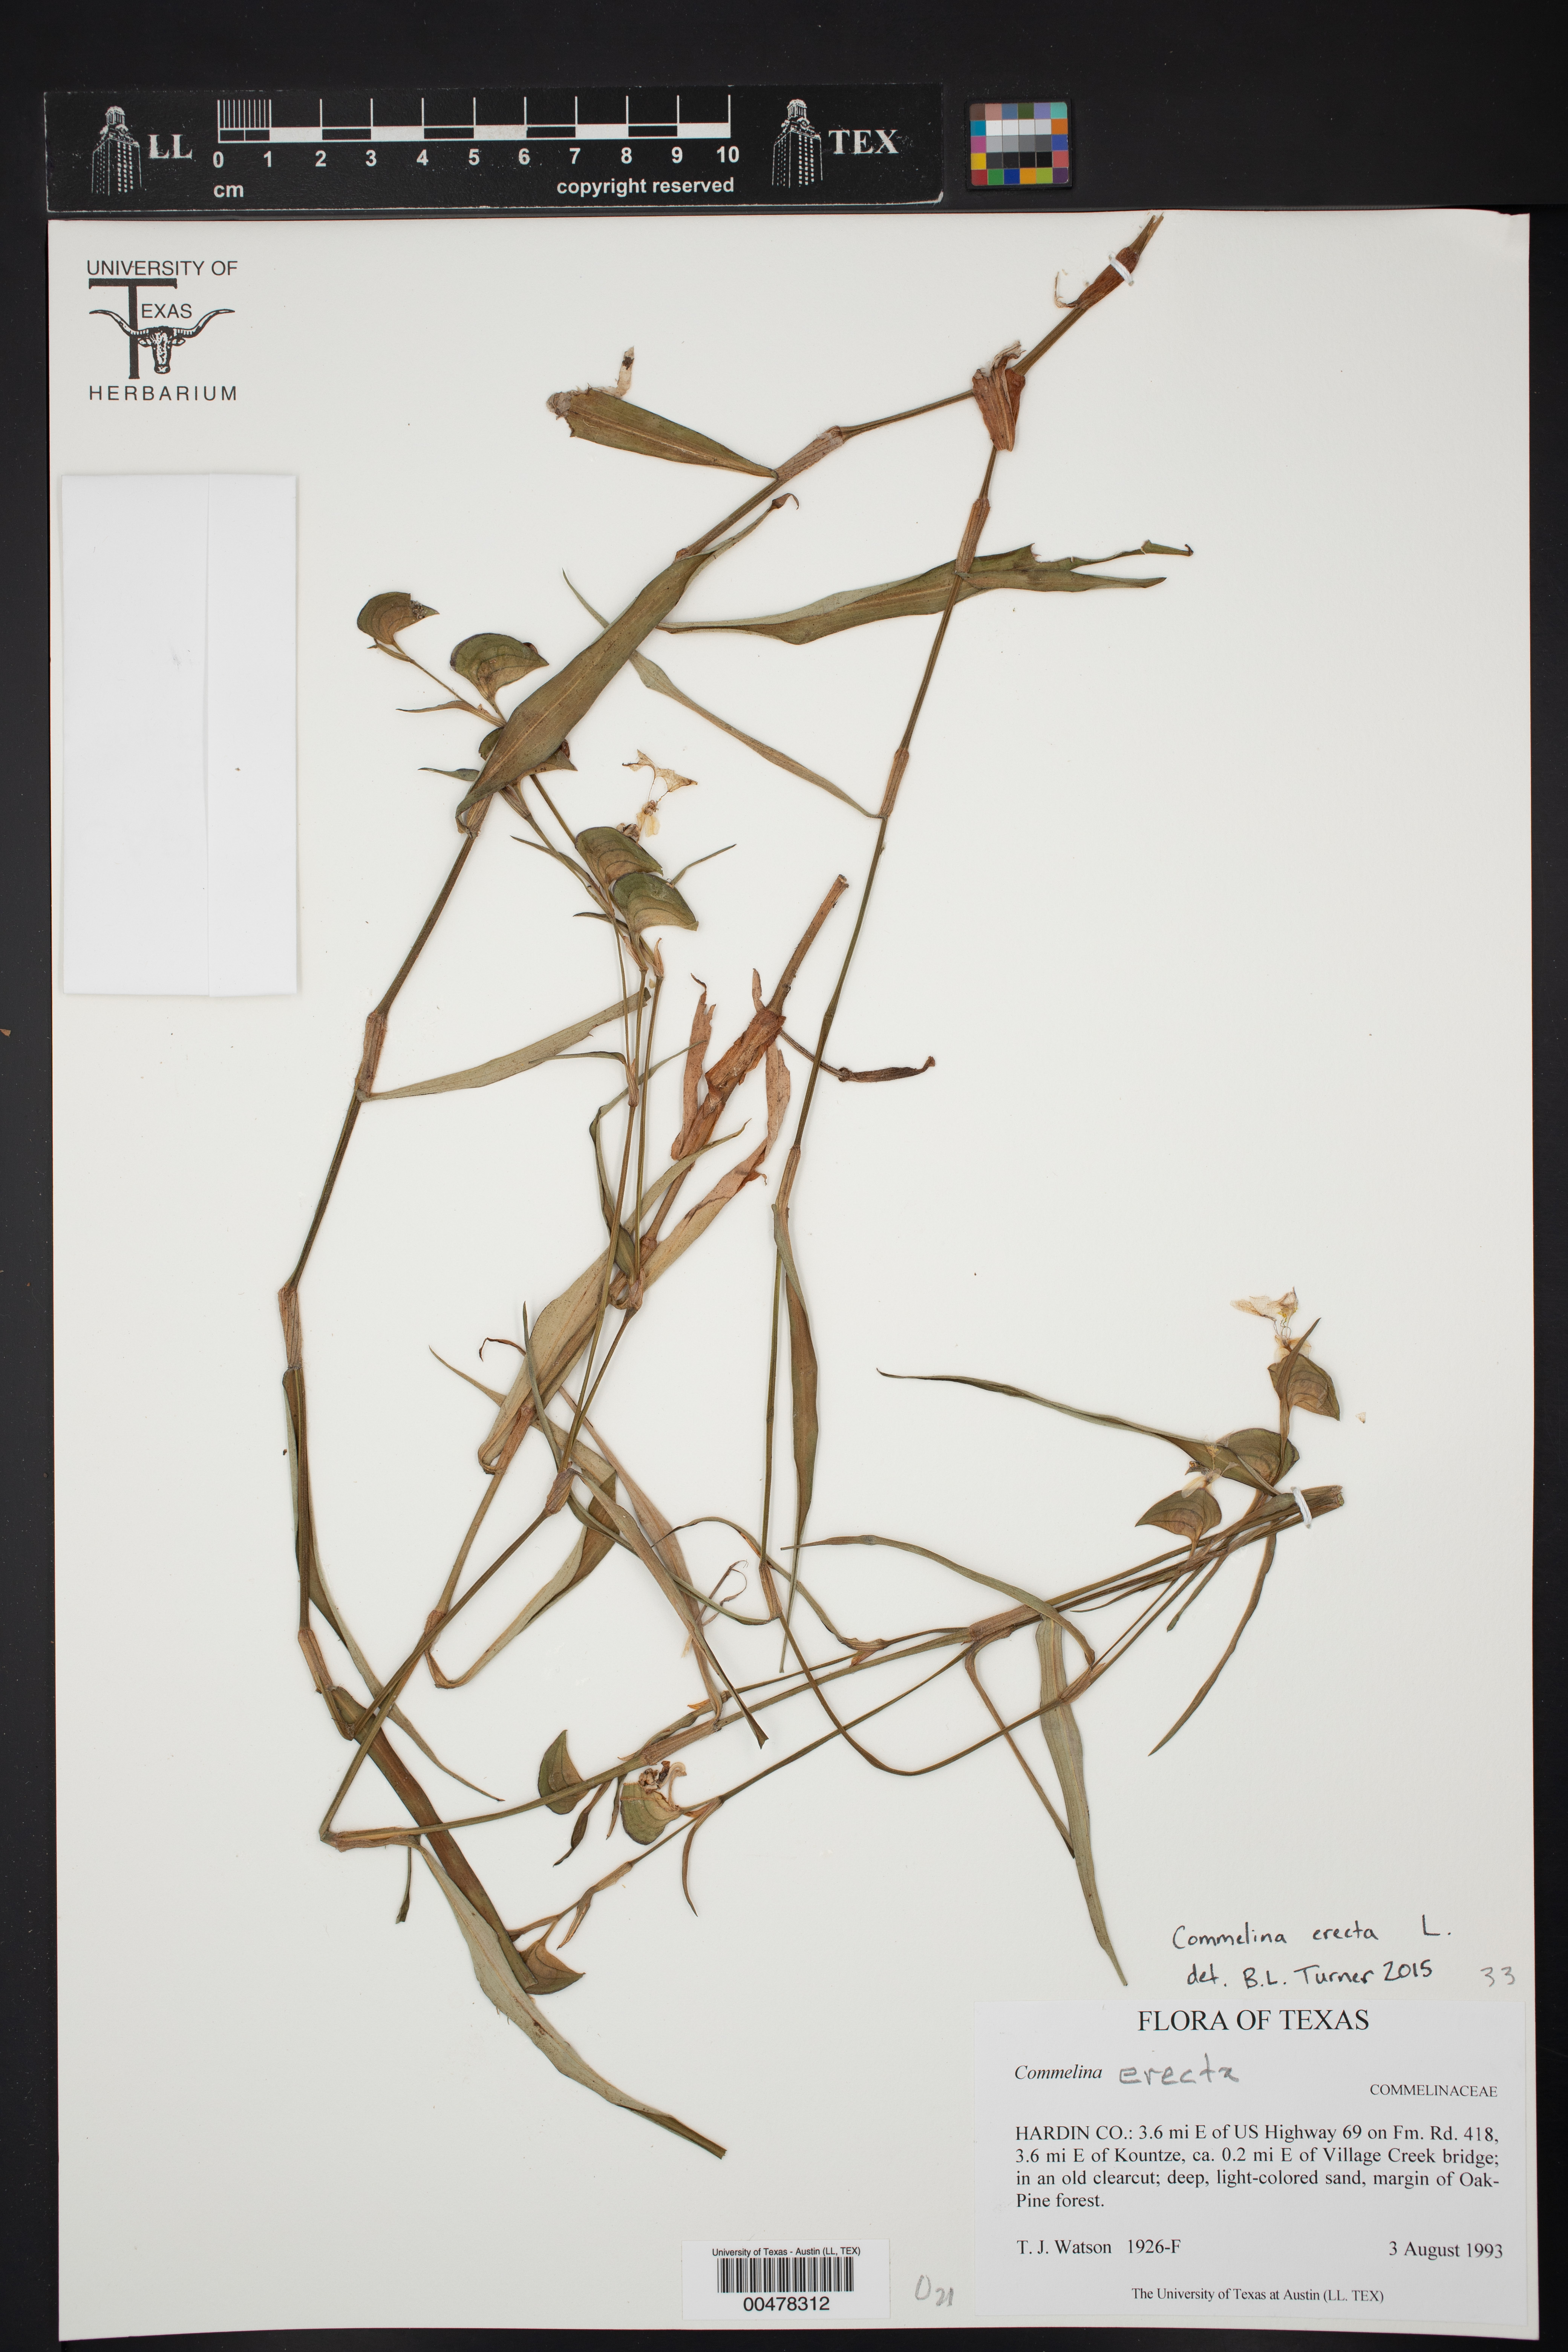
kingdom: Plantae
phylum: Tracheophyta
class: Liliopsida
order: Commelinales
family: Commelinaceae
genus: Commelina
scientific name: Commelina erecta
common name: Blousel blommetjie
